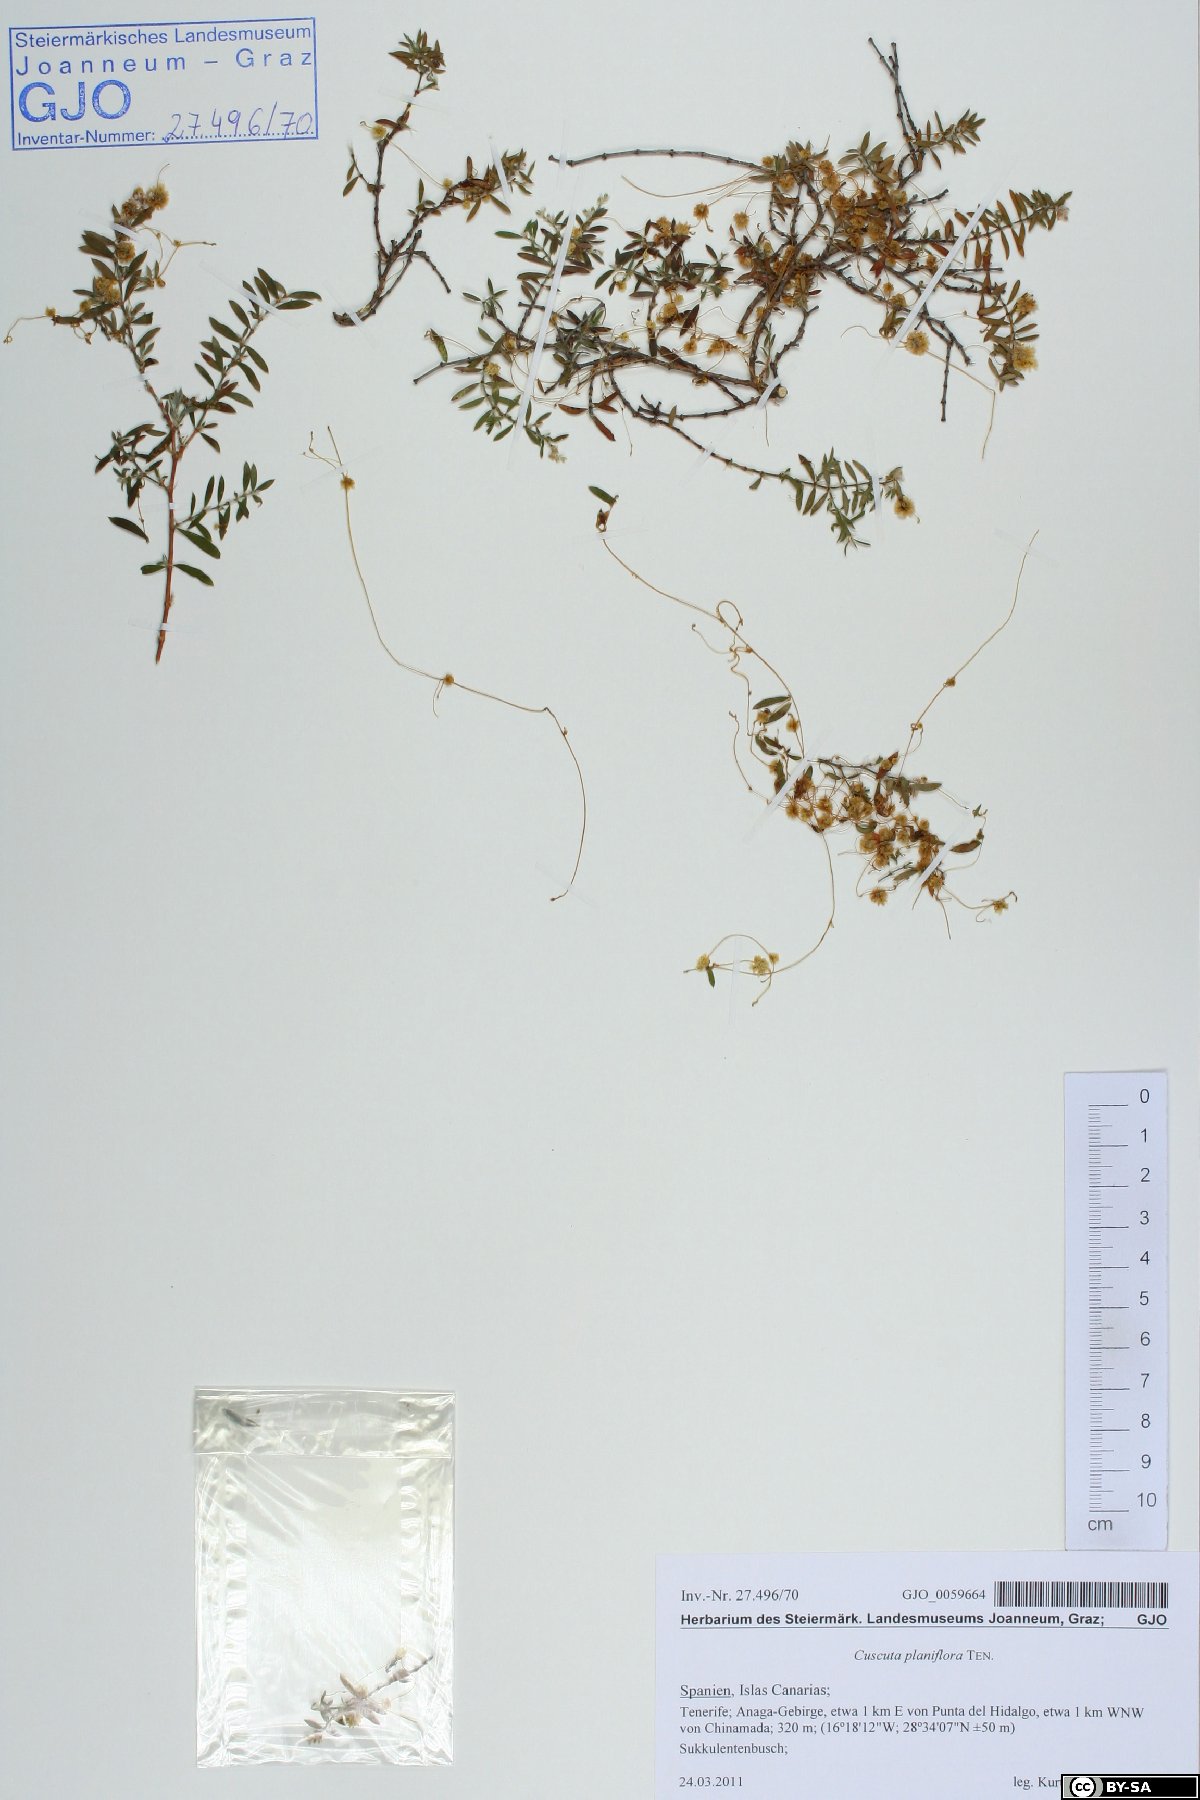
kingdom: Plantae
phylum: Tracheophyta
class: Magnoliopsida
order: Solanales
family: Convolvulaceae
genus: Cuscuta
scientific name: Cuscuta planiflora
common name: Small-seed alfalfa dodder
